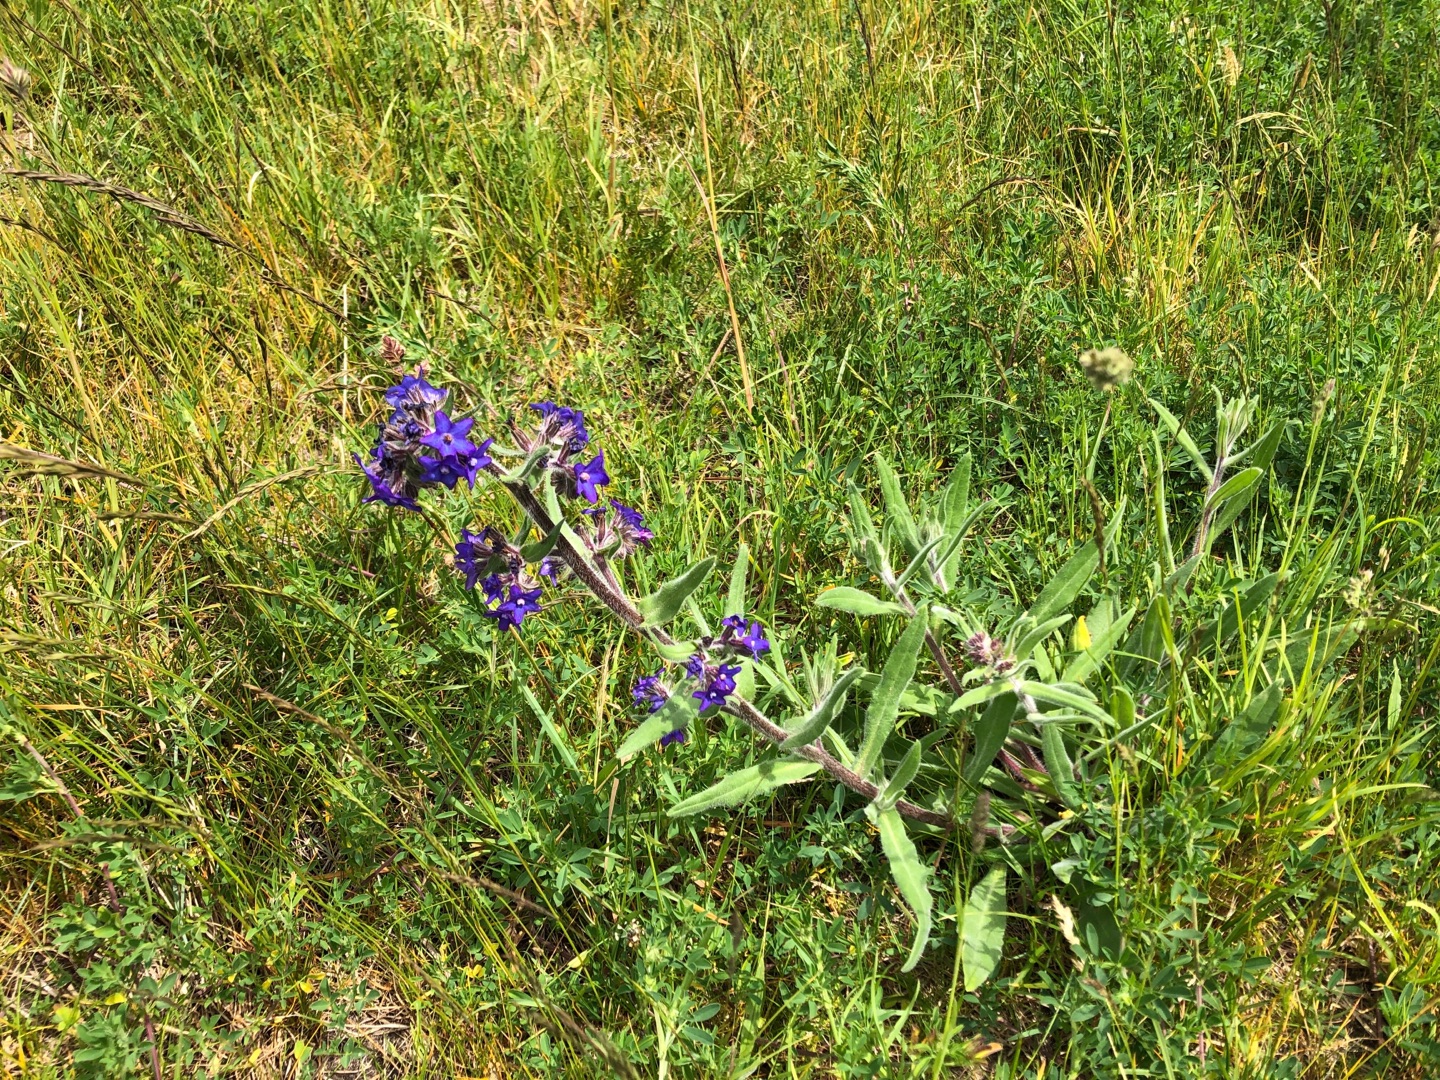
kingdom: Plantae
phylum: Tracheophyta
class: Magnoliopsida
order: Boraginales
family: Boraginaceae
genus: Anchusa
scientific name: Anchusa officinalis
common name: Læge-oksetunge
